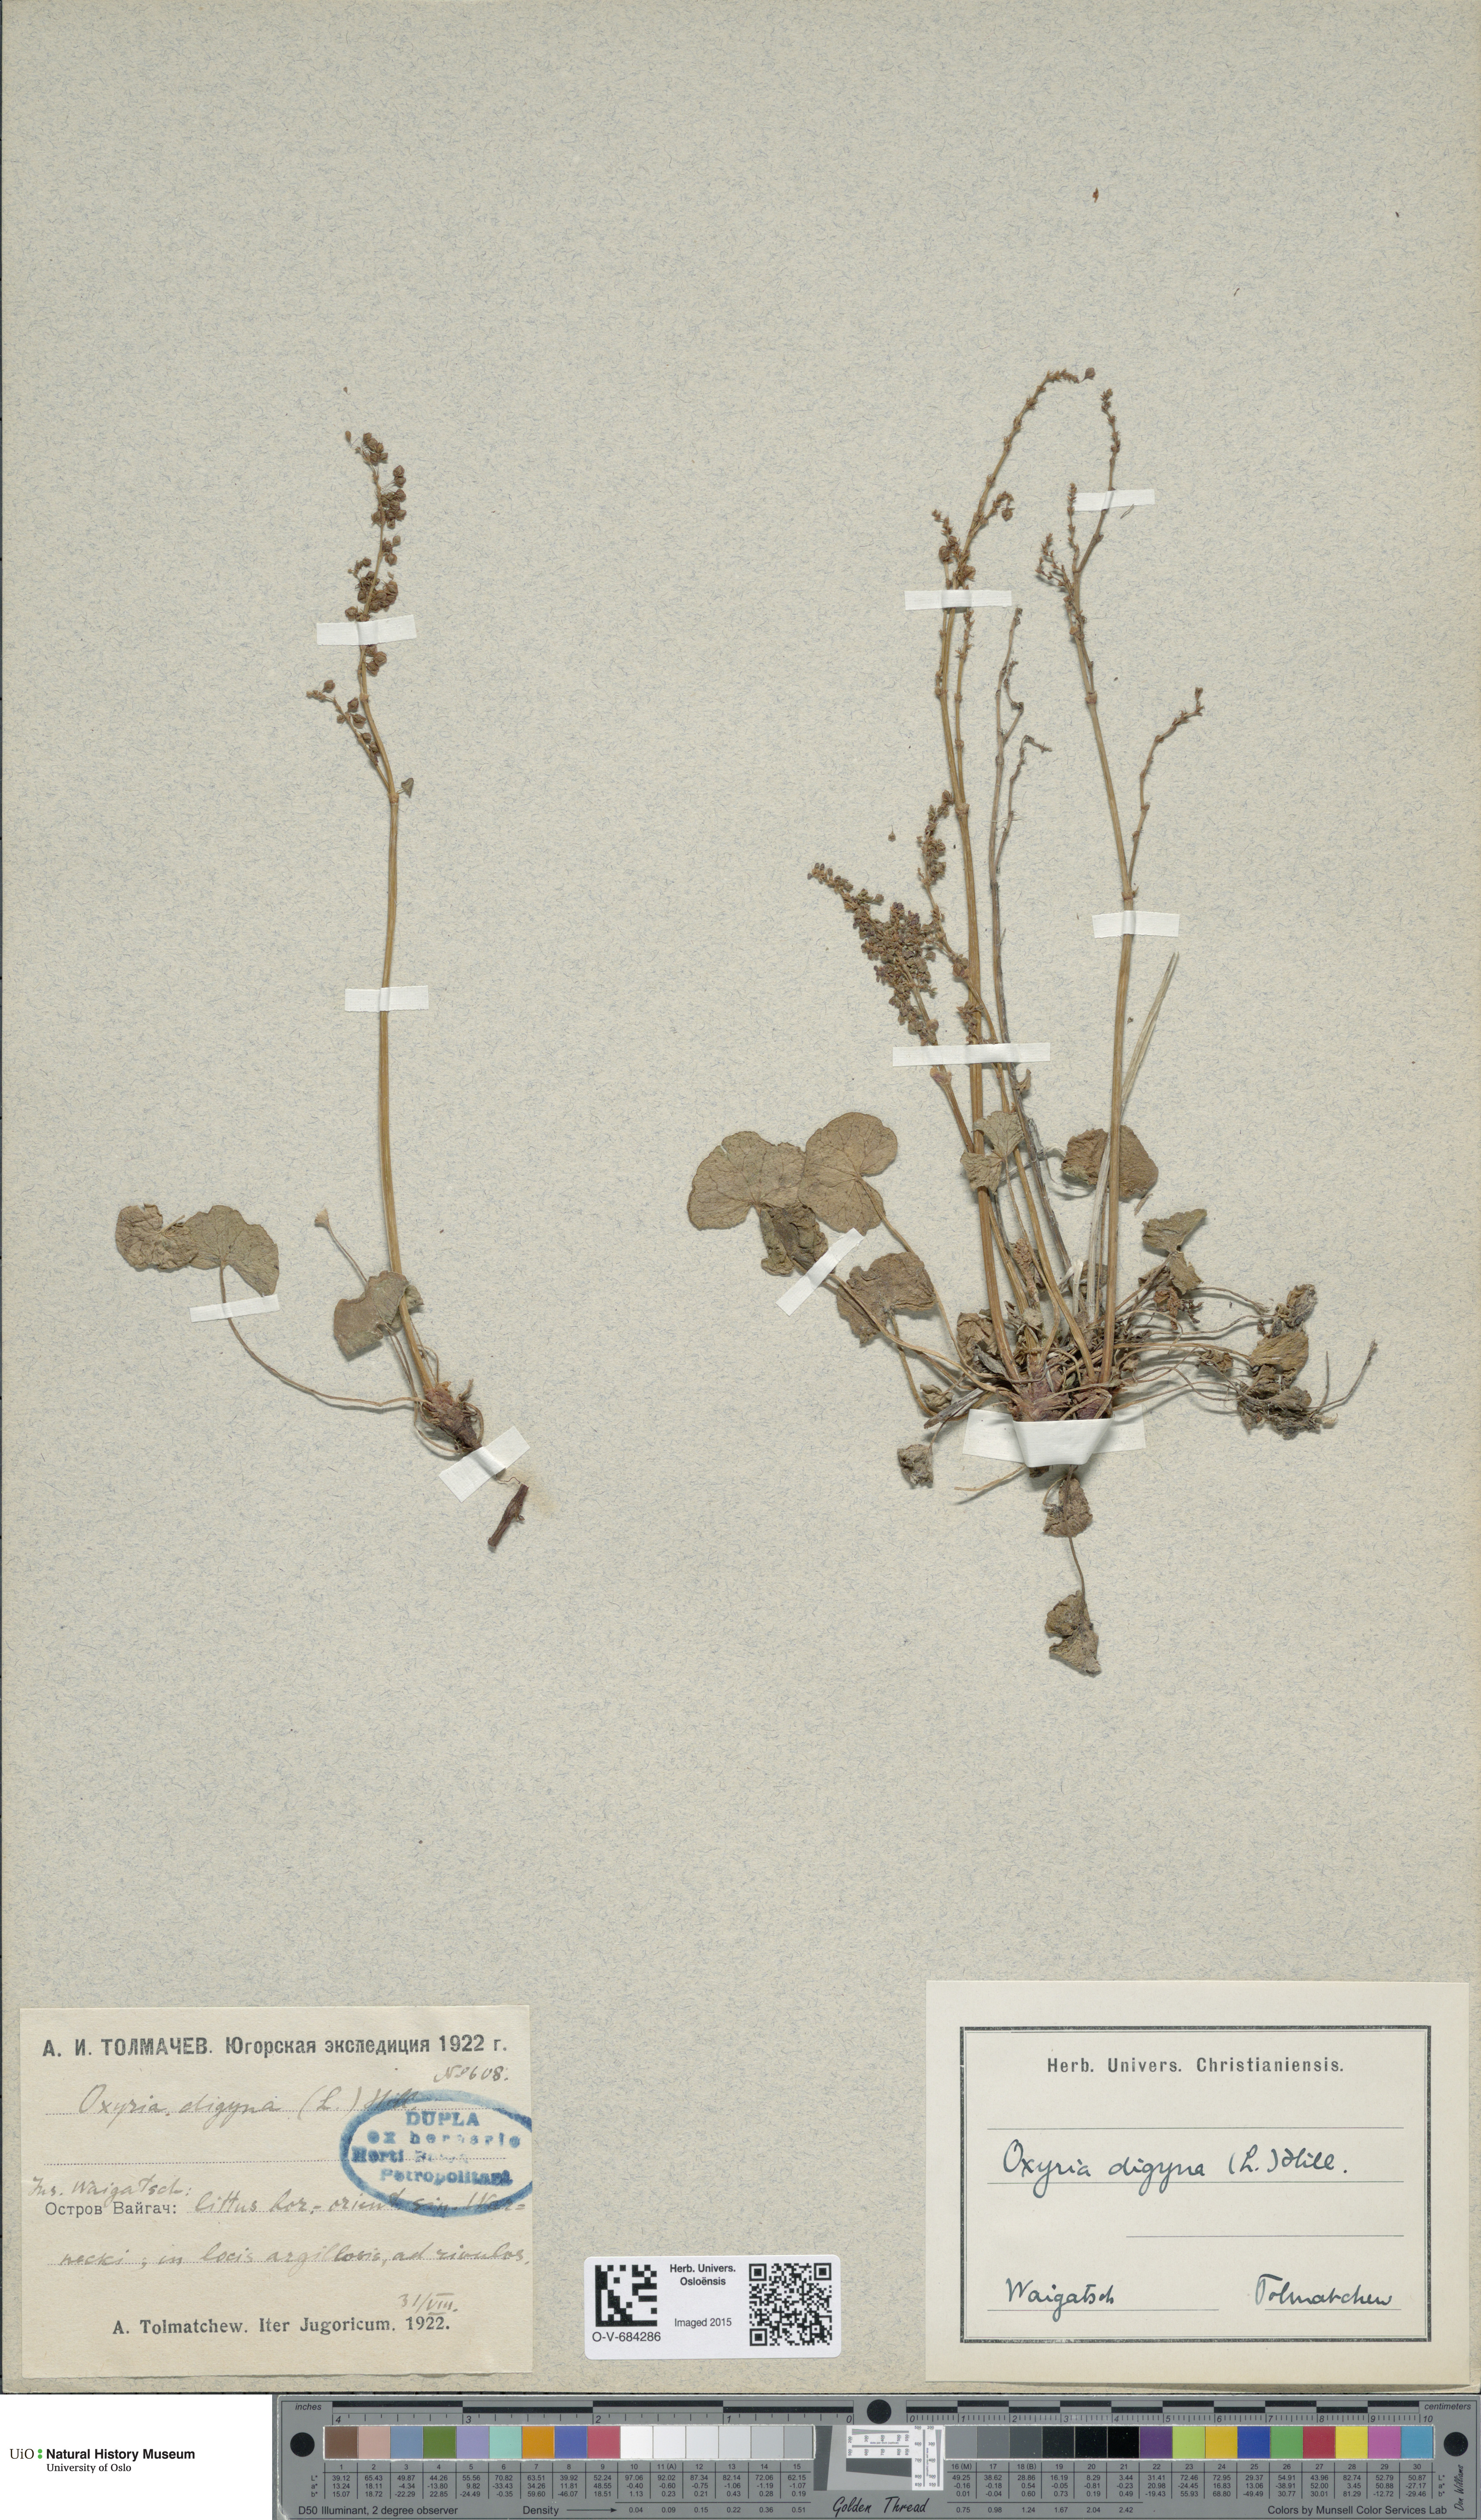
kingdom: Plantae
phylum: Tracheophyta
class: Magnoliopsida
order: Caryophyllales
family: Polygonaceae
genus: Oxyria
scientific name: Oxyria digyna
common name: Alpine mountain-sorrel
